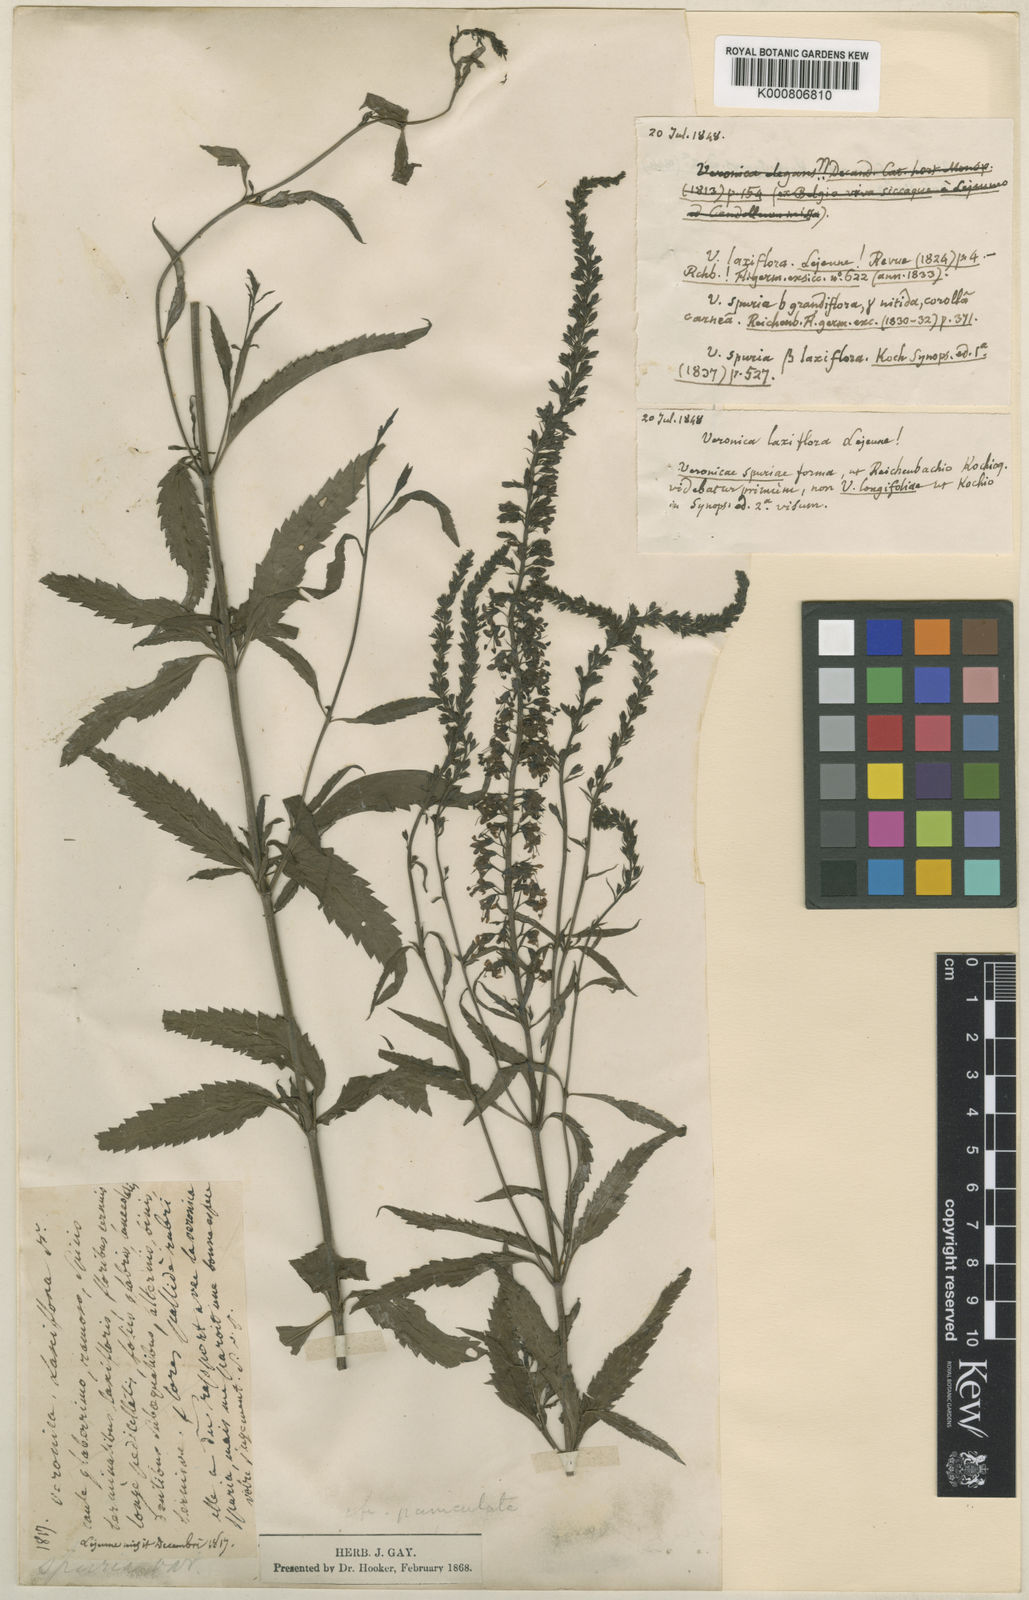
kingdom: Plantae
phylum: Tracheophyta
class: Magnoliopsida
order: Lamiales
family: Plantaginaceae
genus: Veronica
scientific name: Veronica longifolia
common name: Garden speedwell
